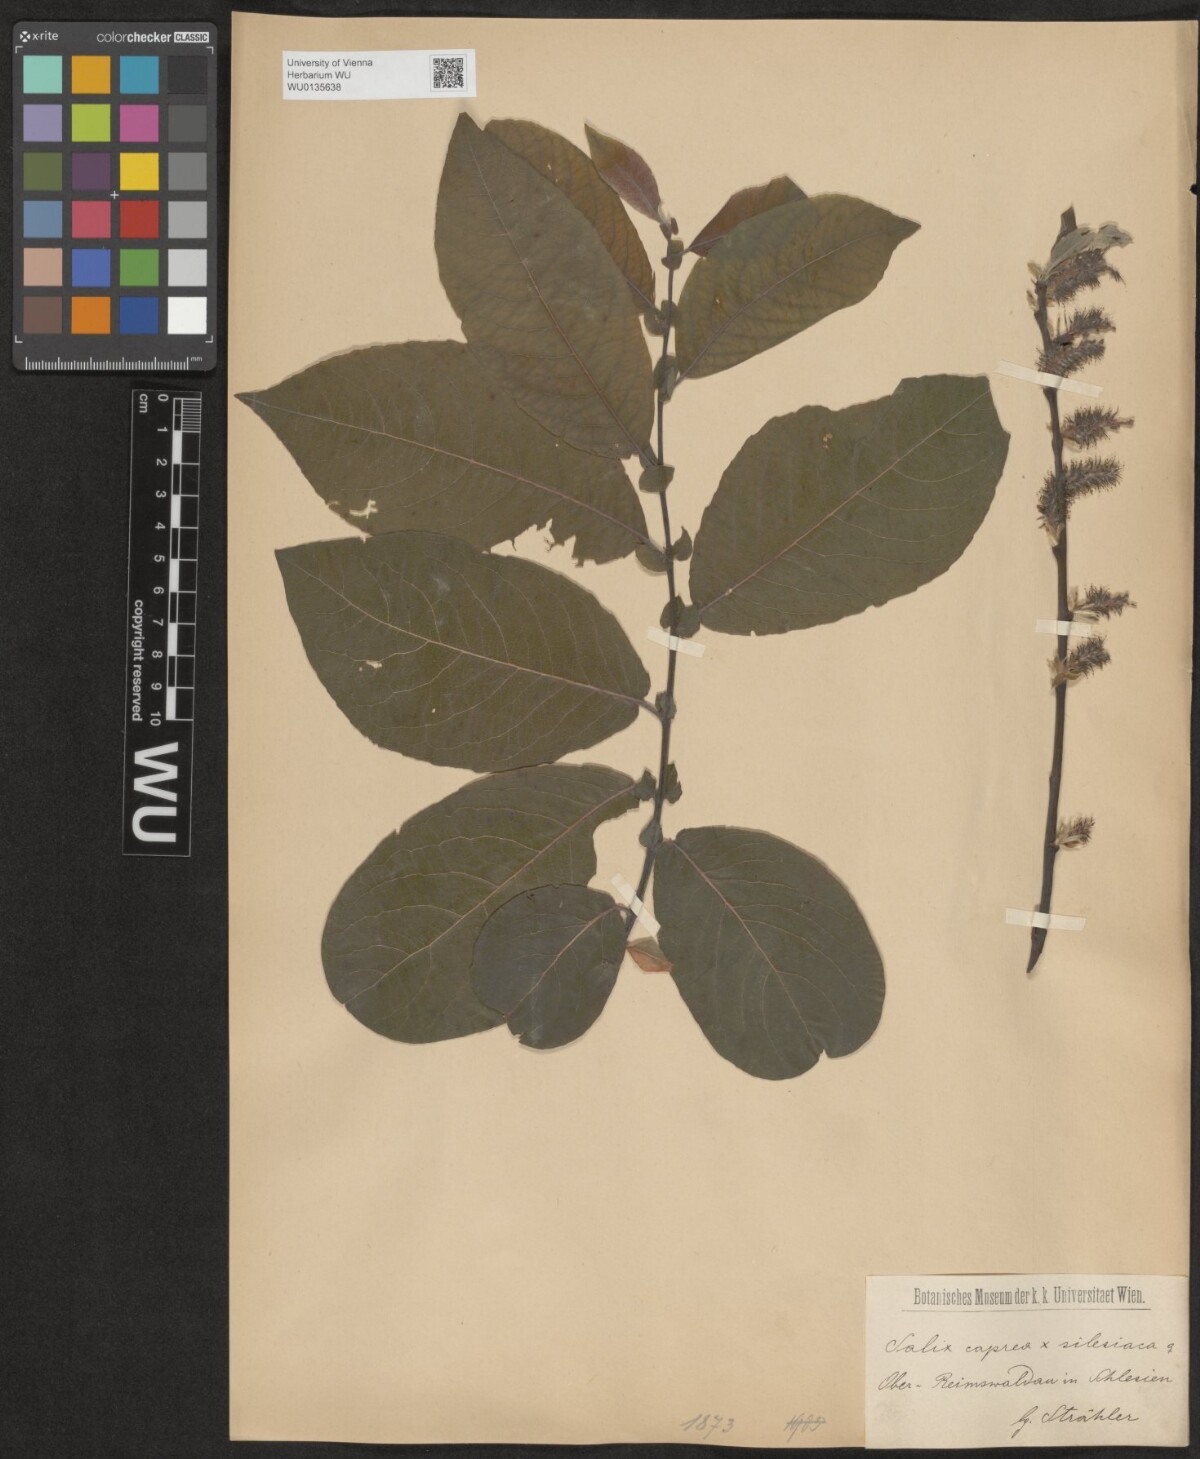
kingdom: Plantae
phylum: Tracheophyta
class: Magnoliopsida
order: Malpighiales
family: Salicaceae
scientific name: Salicaceae
